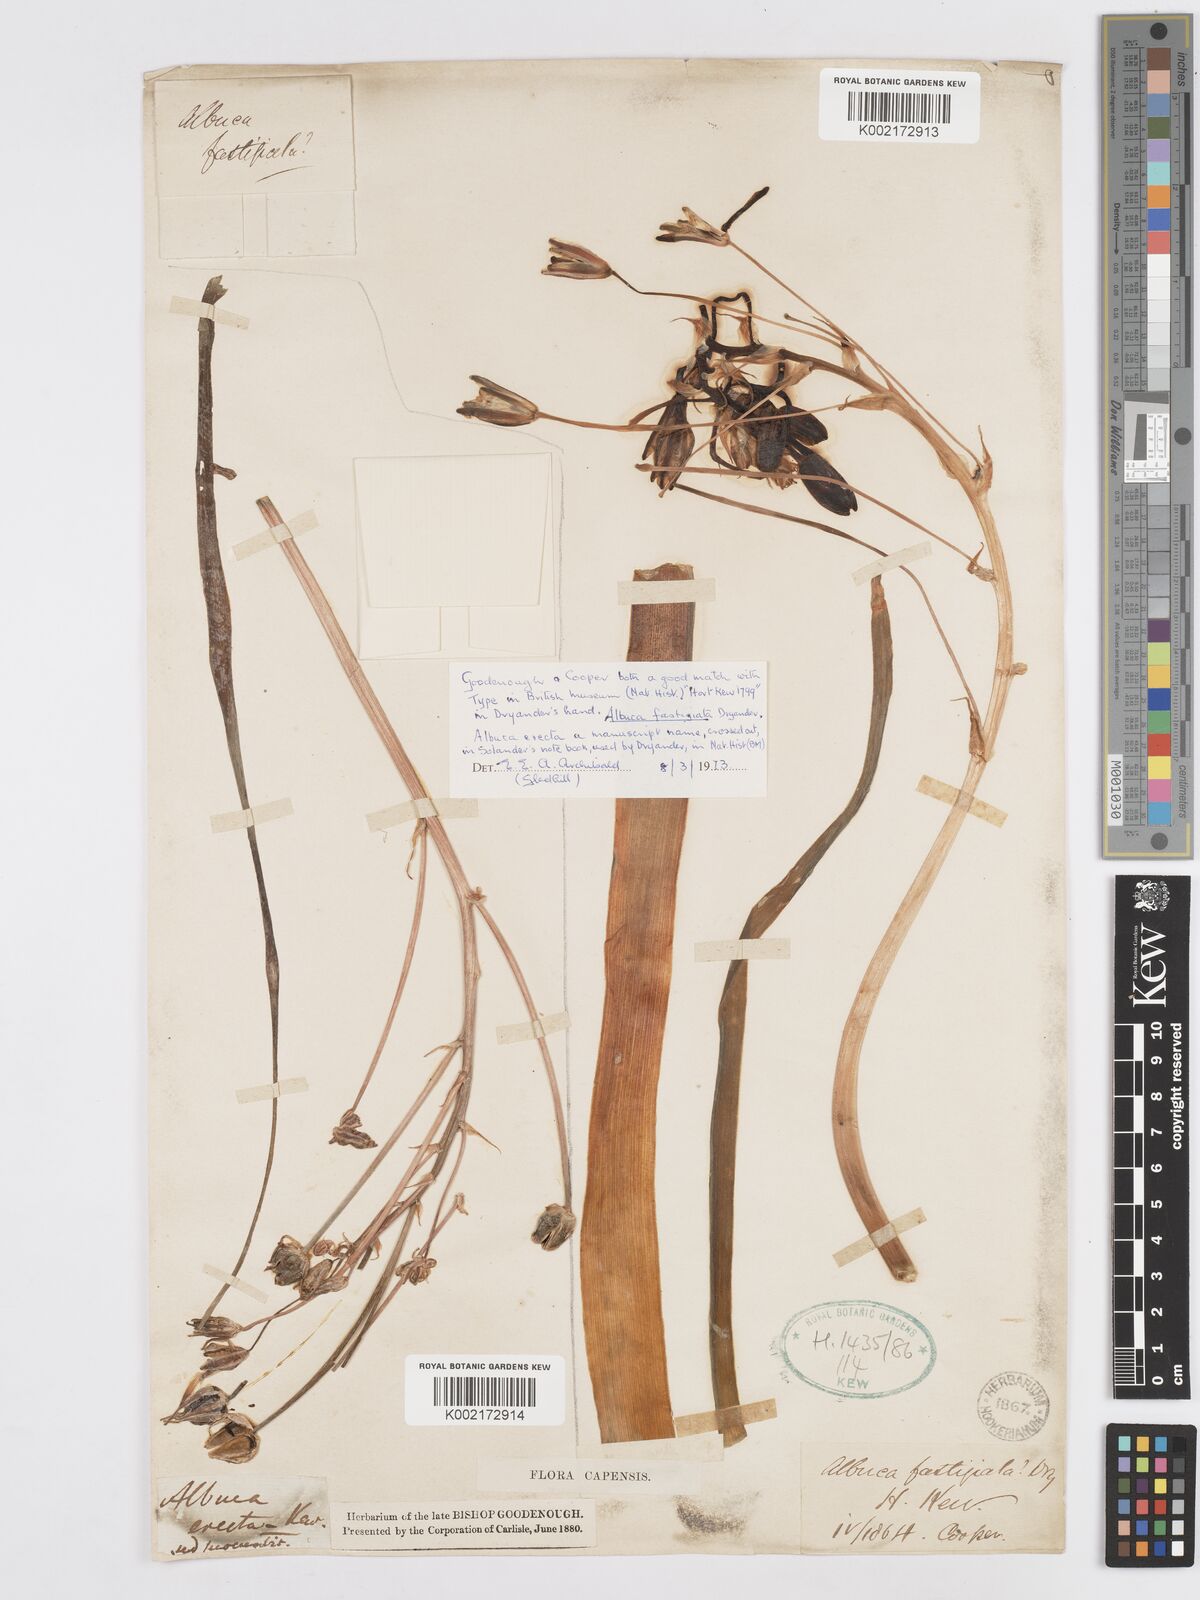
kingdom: Plantae
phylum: Tracheophyta
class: Liliopsida
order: Asparagales
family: Asparagaceae
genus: Albuca
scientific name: Albuca fastigiata
